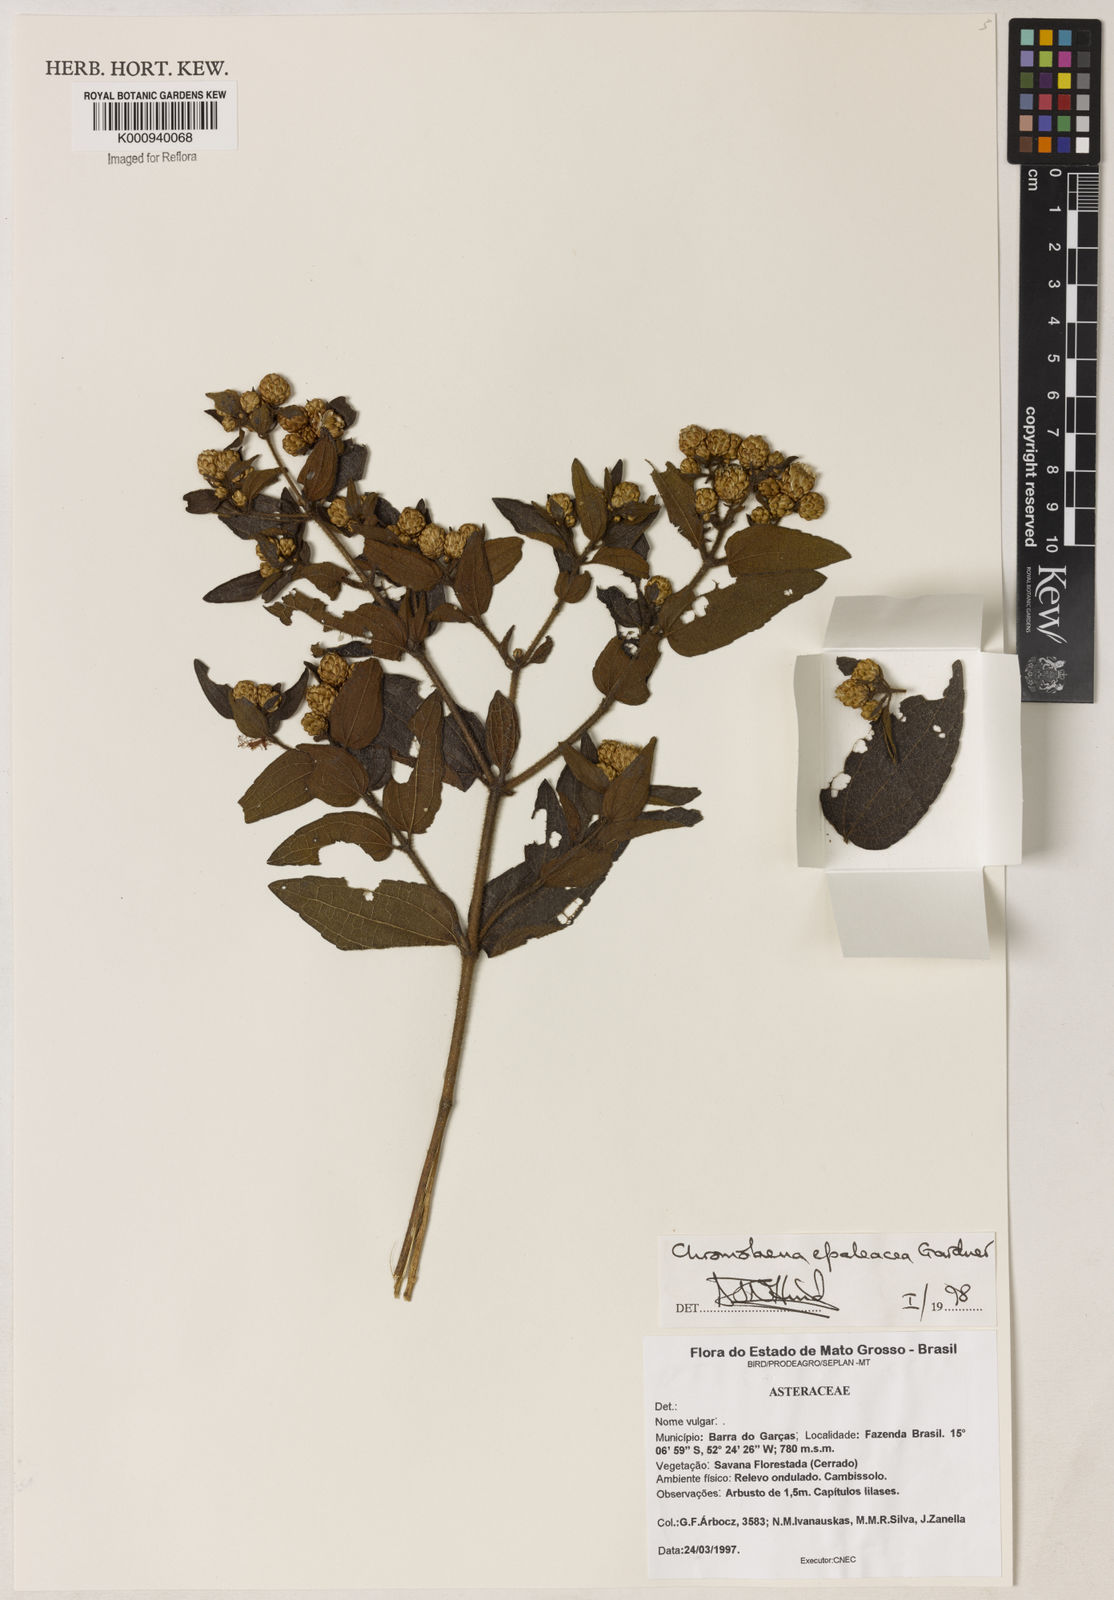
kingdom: Plantae
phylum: Tracheophyta
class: Magnoliopsida
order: Asterales
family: Asteraceae
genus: Chromolaena
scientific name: Chromolaena epaleacea
